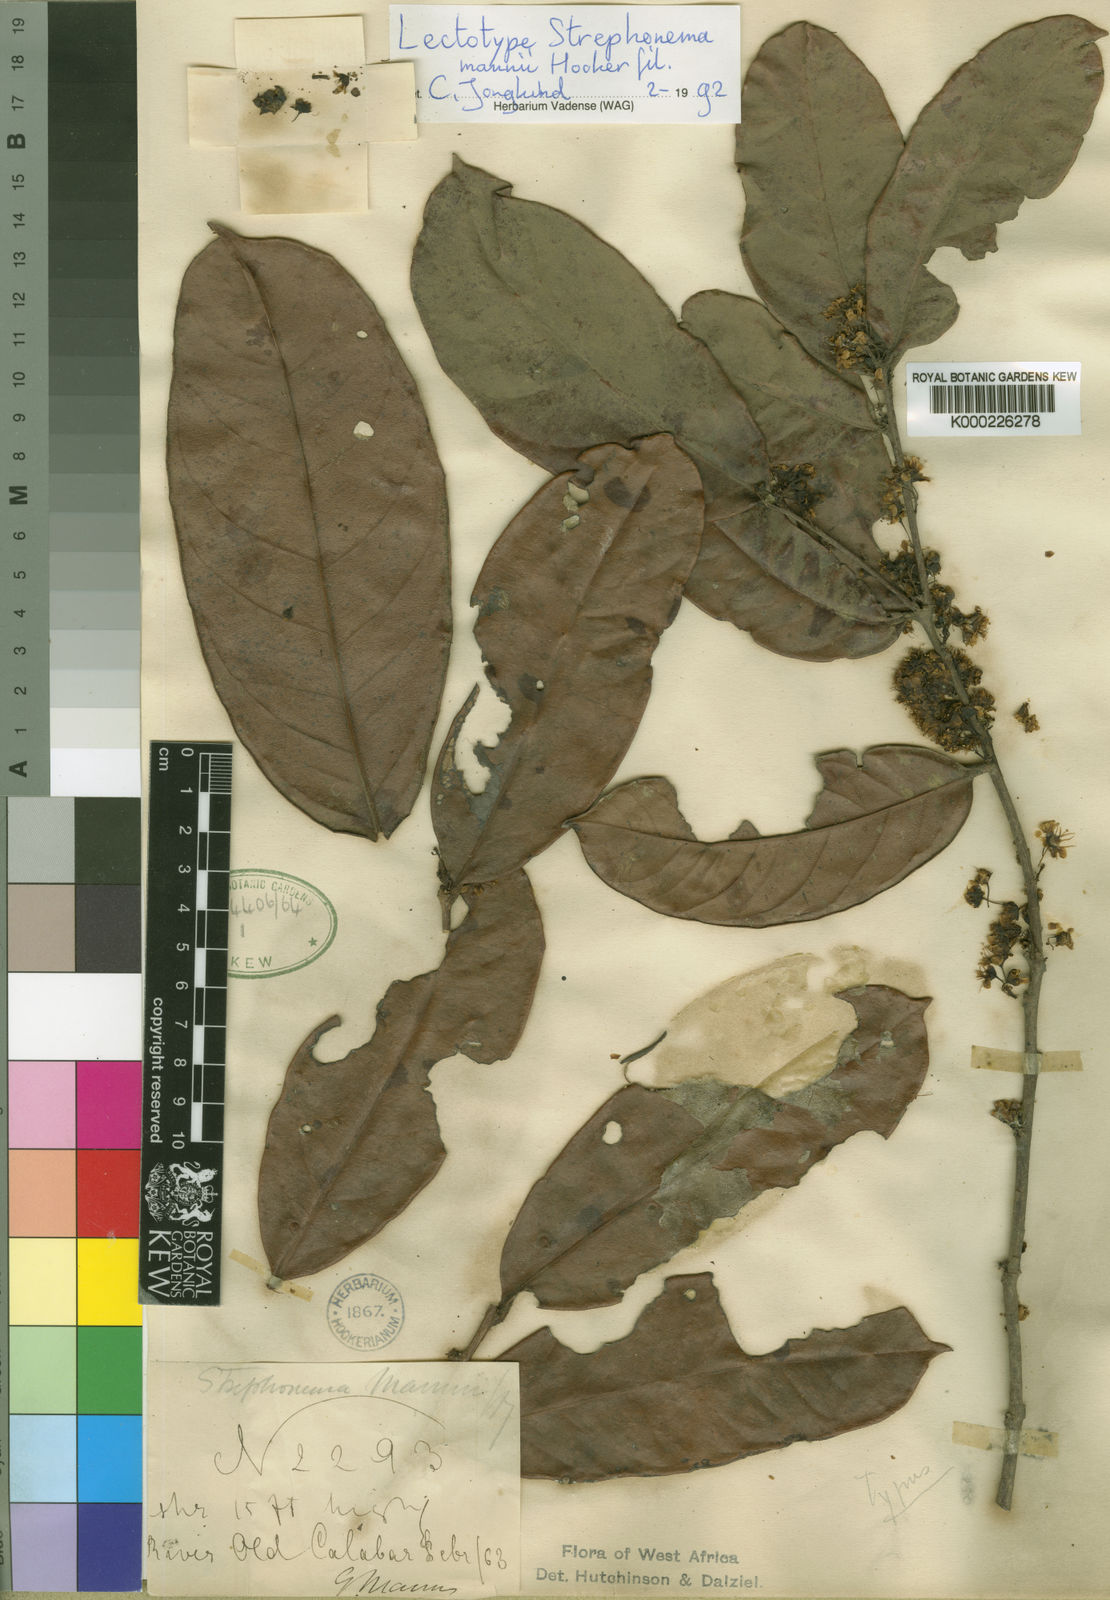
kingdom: Plantae
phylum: Tracheophyta
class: Magnoliopsida
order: Myrtales
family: Combretaceae
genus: Strephonema
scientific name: Strephonema mannii
